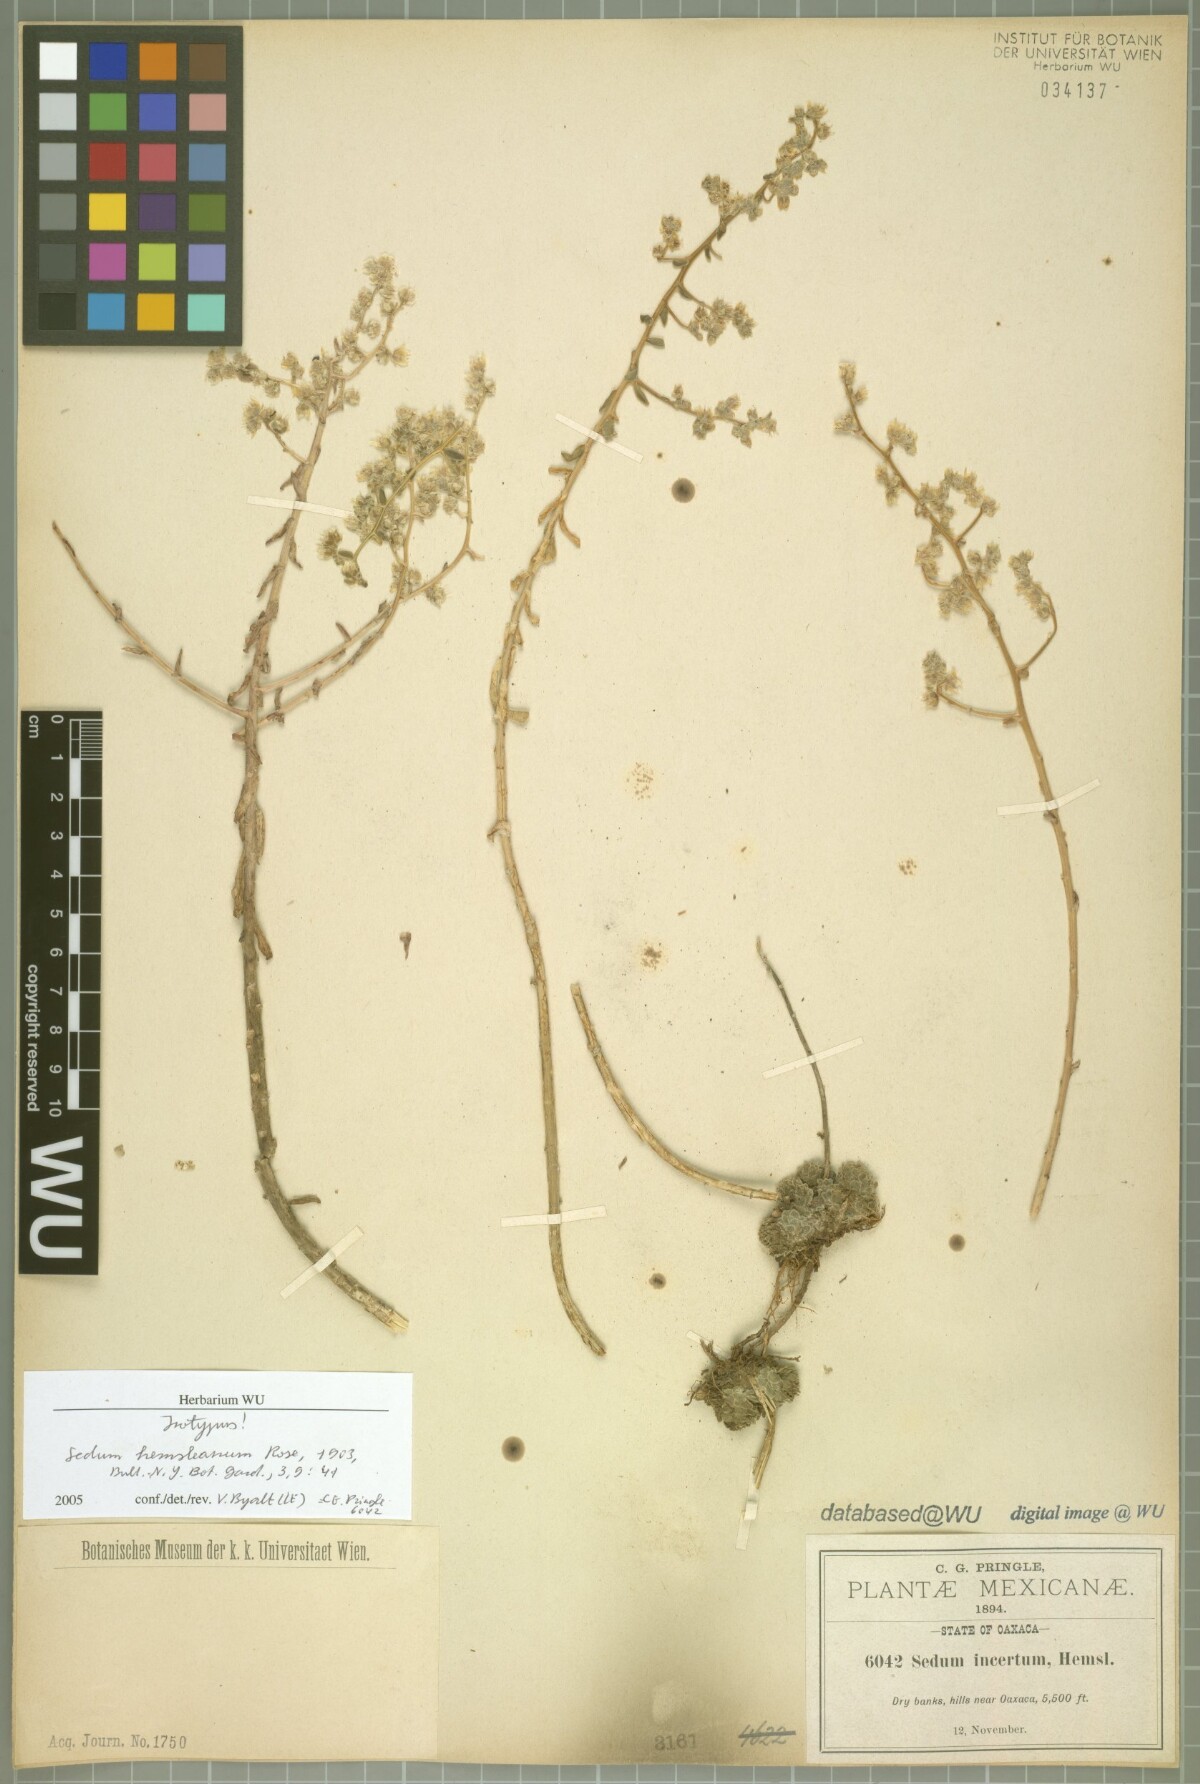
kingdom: Plantae
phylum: Tracheophyta
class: Magnoliopsida
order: Saxifragales
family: Crassulaceae
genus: Sedum
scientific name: Sedum hemsleyanum
